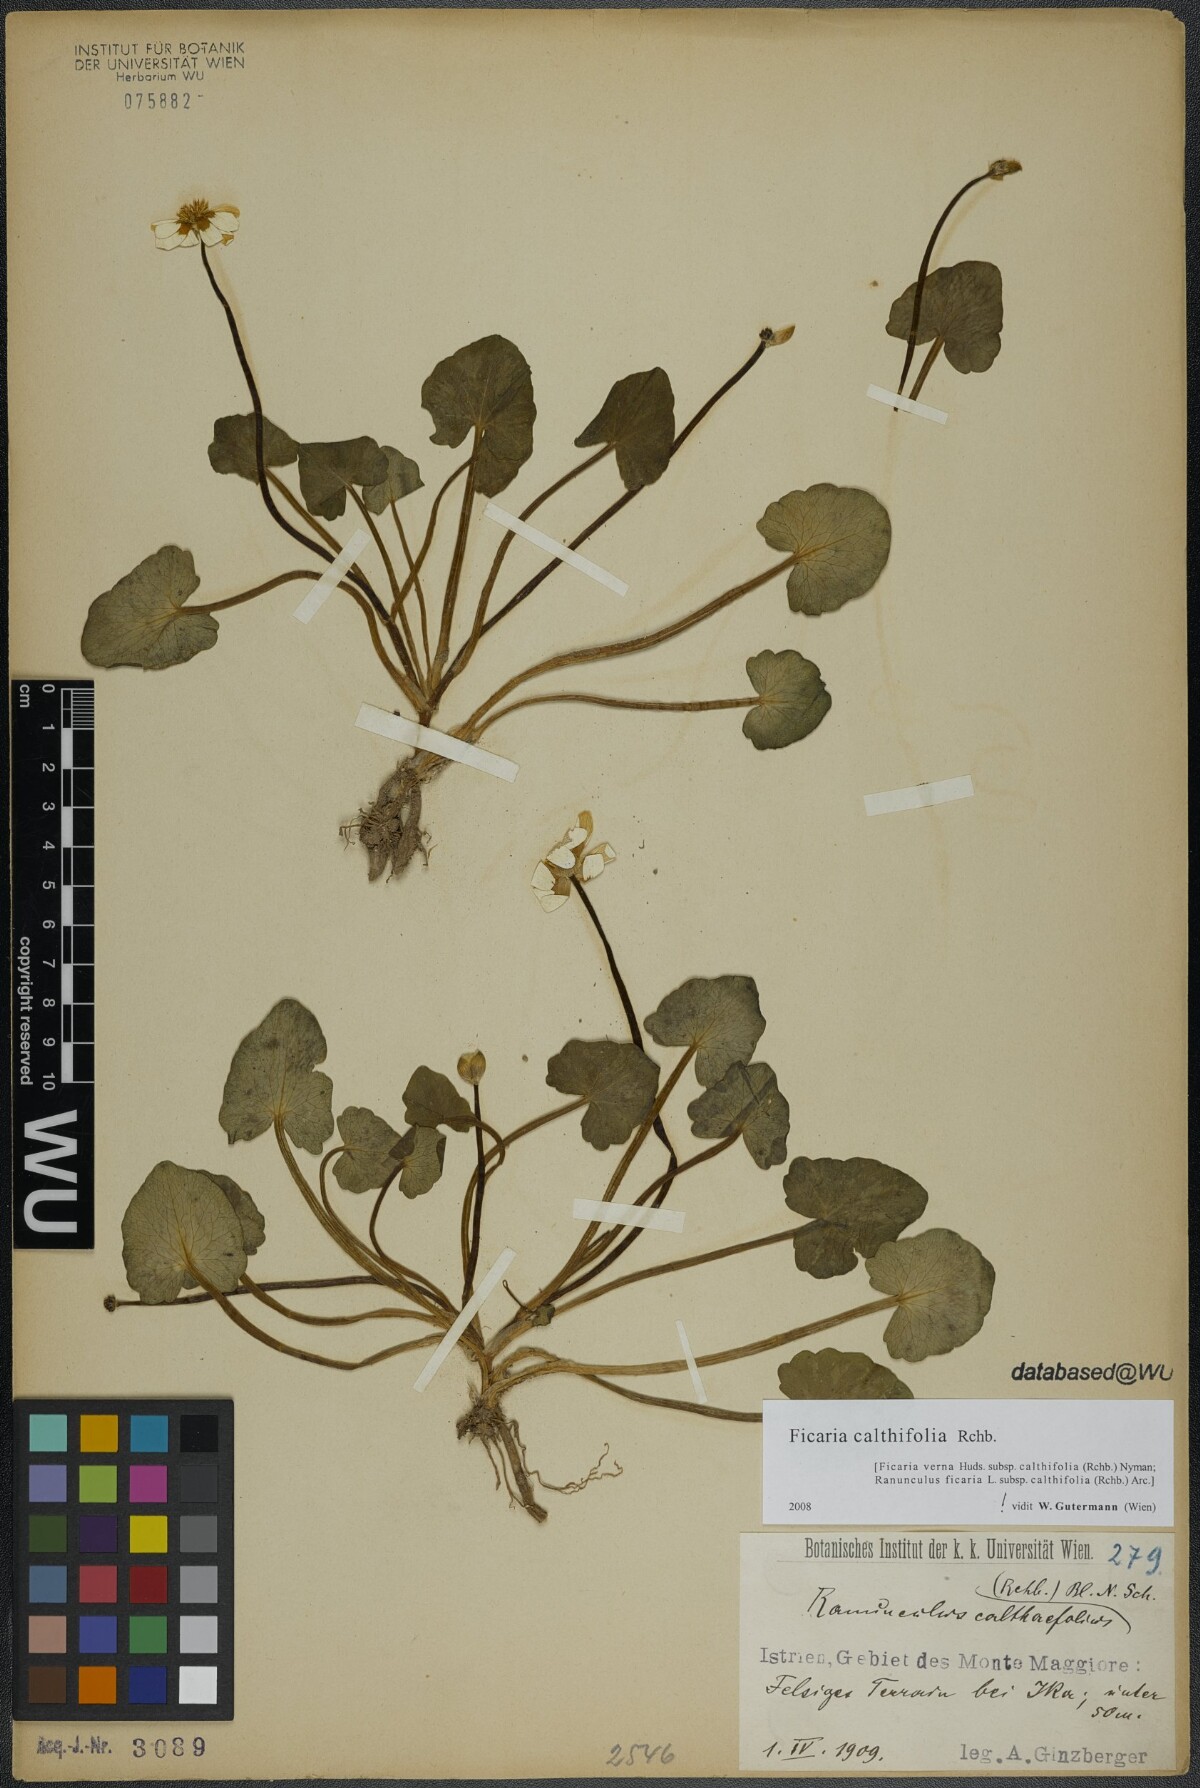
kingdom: Plantae
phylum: Tracheophyta
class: Magnoliopsida
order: Ranunculales
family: Ranunculaceae
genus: Ficaria
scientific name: Ficaria calthifolia
